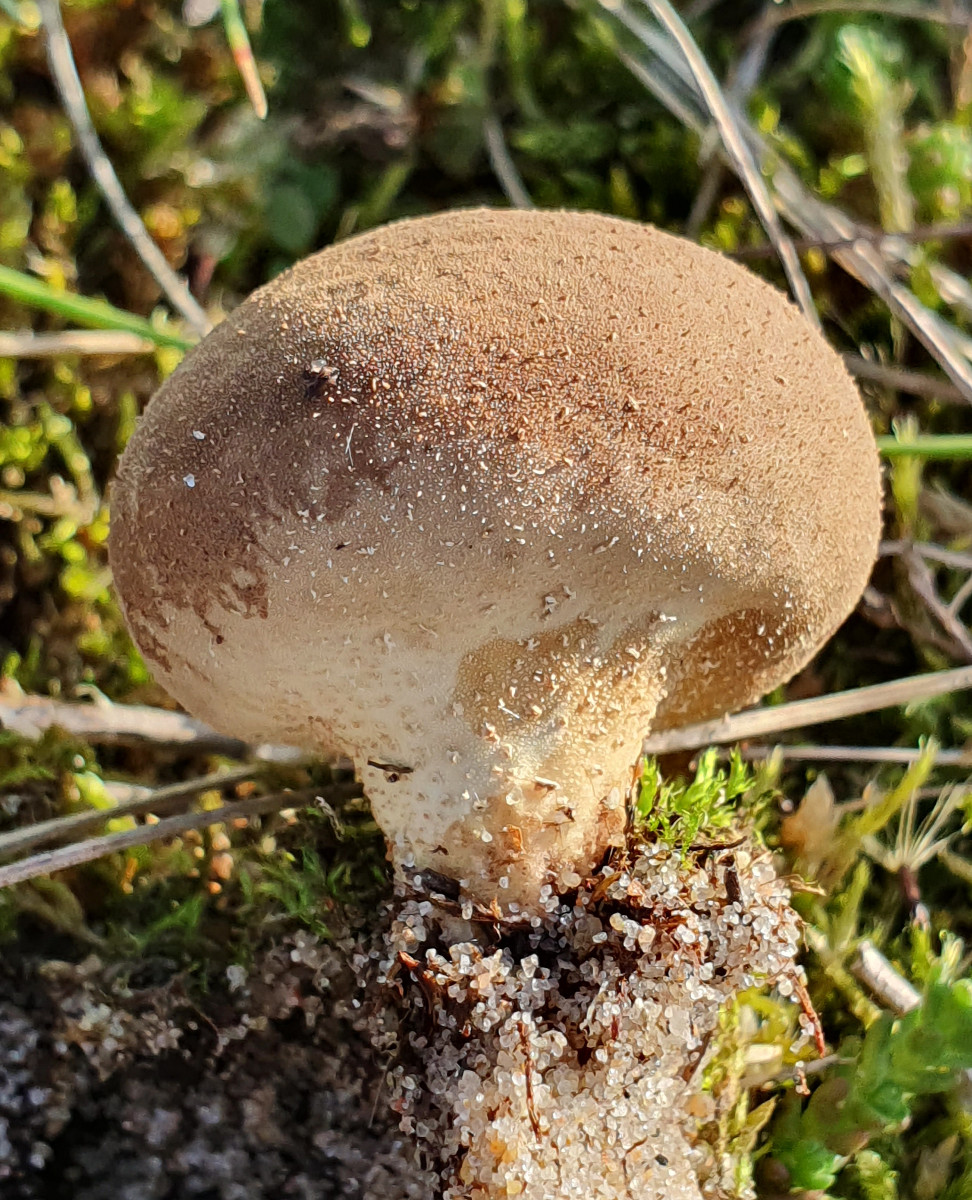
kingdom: Fungi
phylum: Basidiomycota
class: Agaricomycetes
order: Agaricales
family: Lycoperdaceae
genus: Lycoperdon
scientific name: Lycoperdon lividum
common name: mark-støvbold
